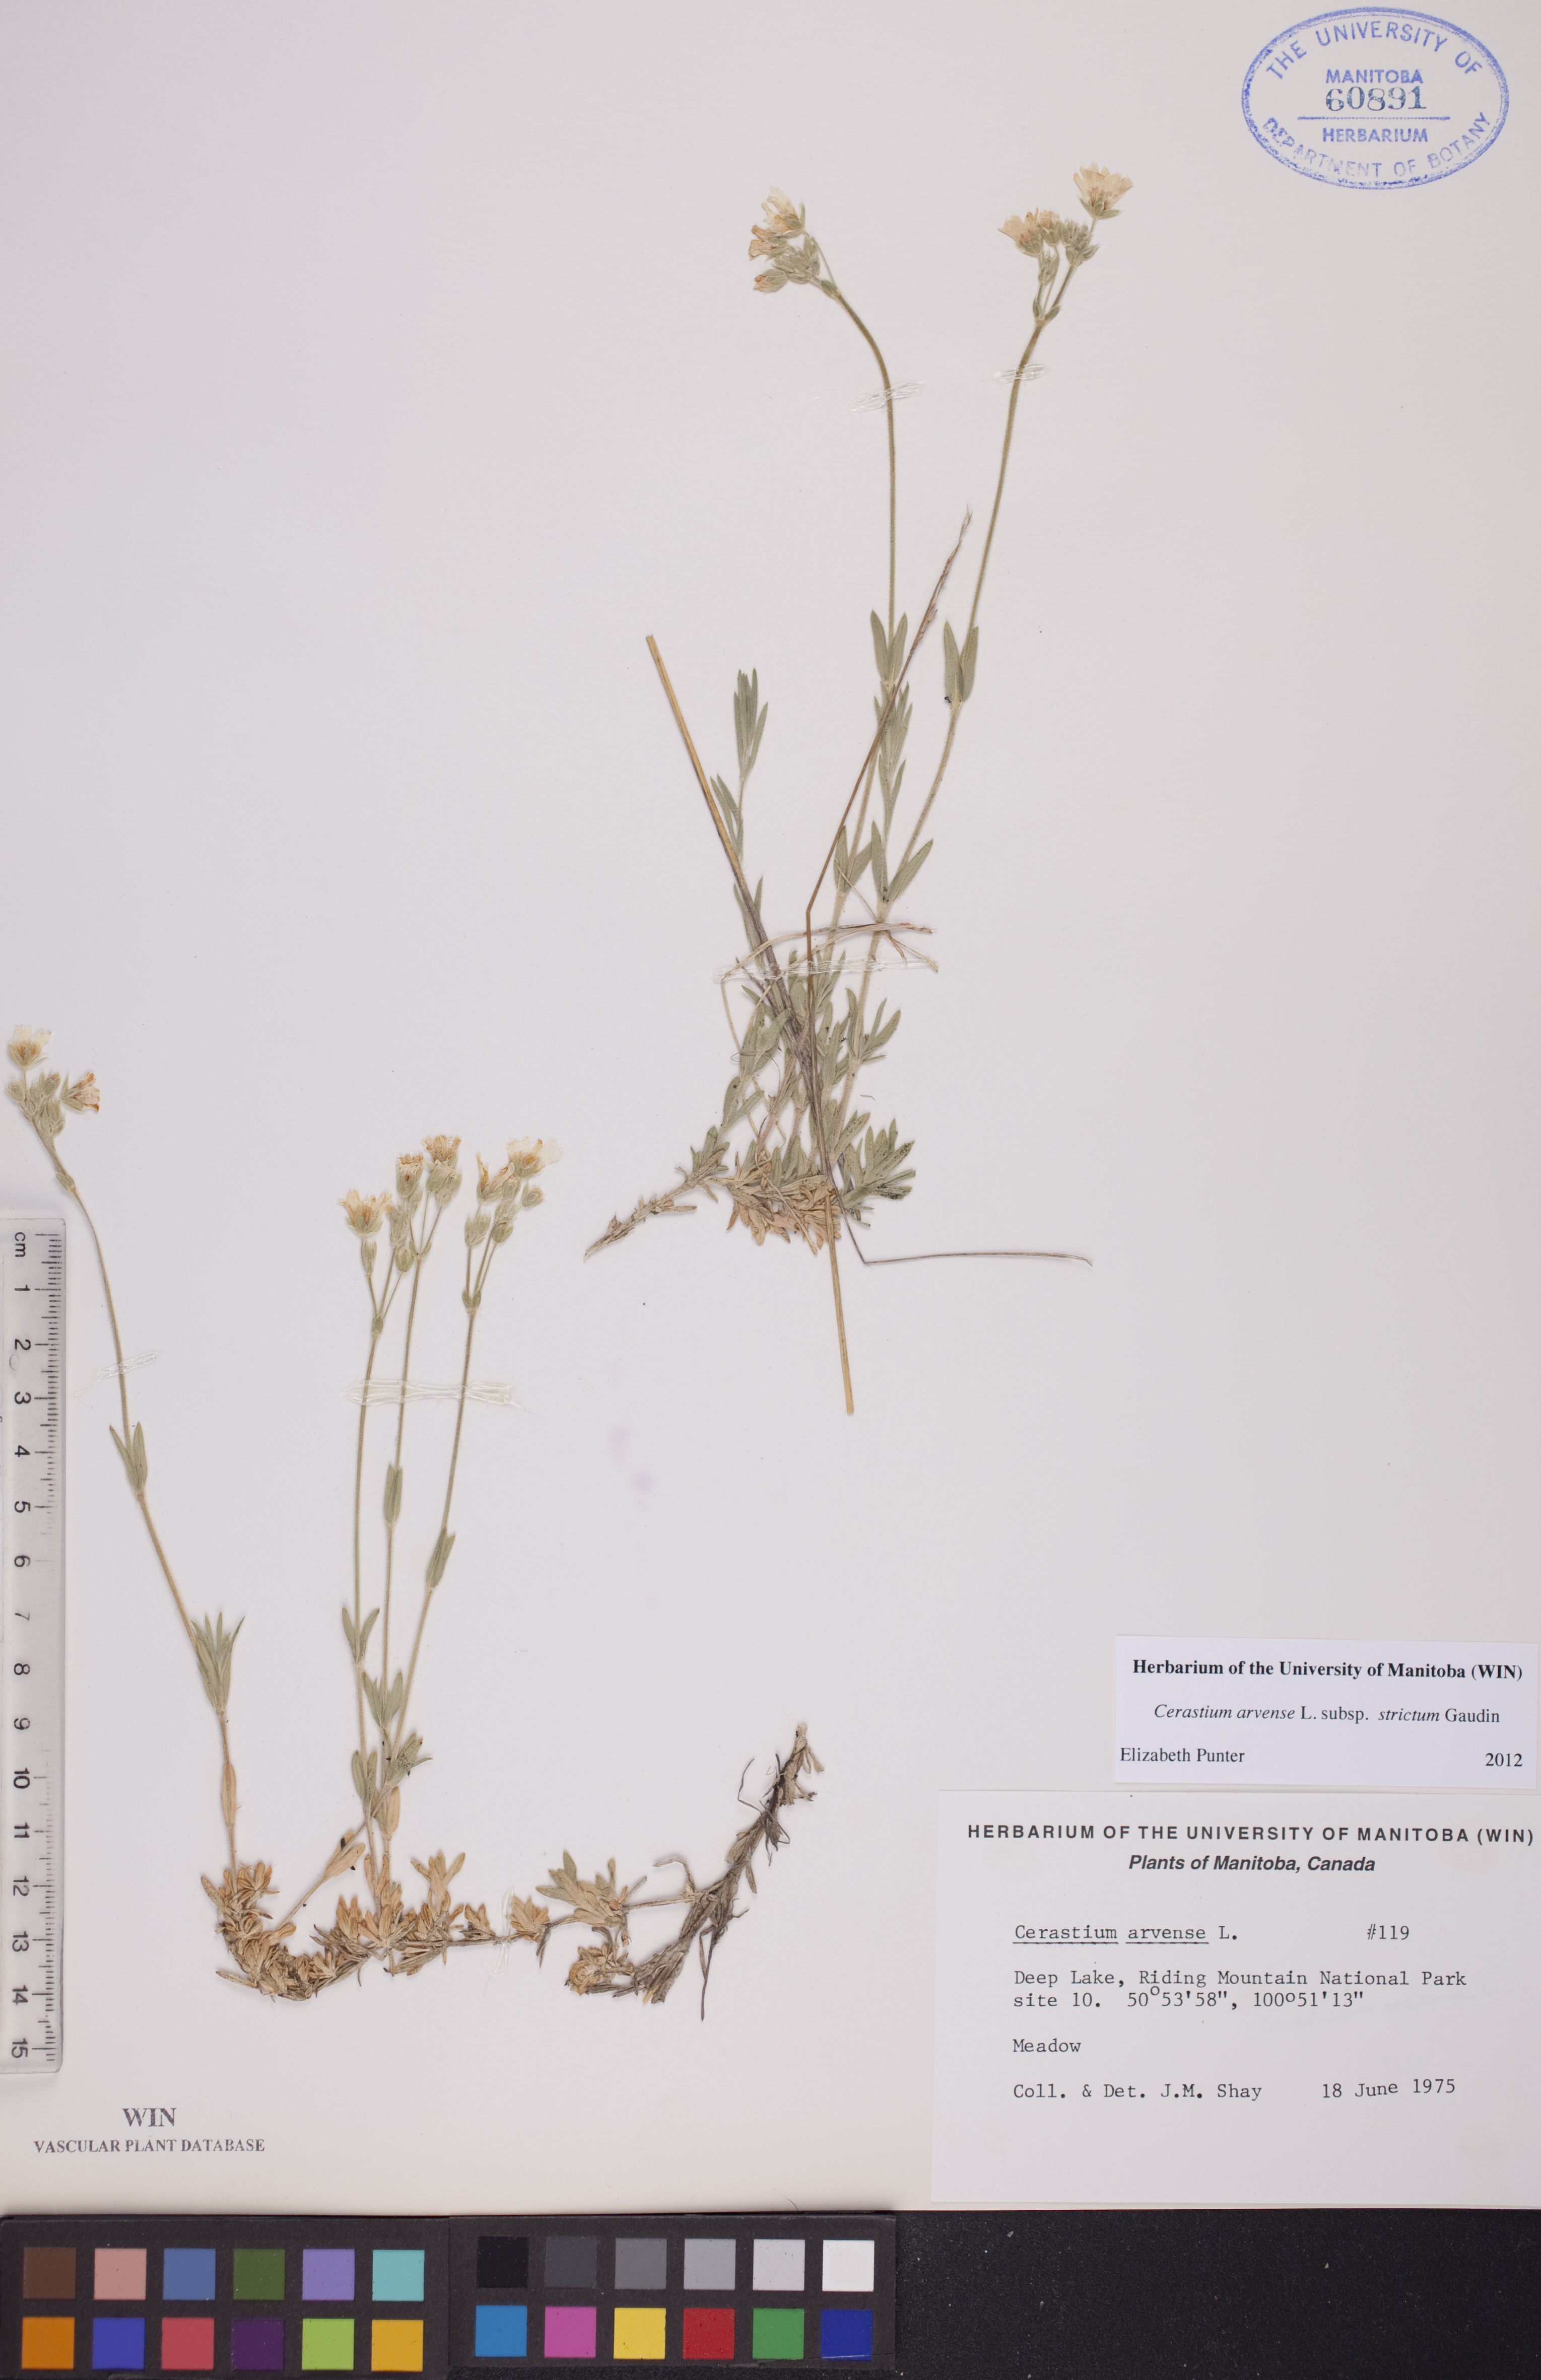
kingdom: Plantae
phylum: Tracheophyta
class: Magnoliopsida
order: Caryophyllales
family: Caryophyllaceae
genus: Cerastium
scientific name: Cerastium elongatum
